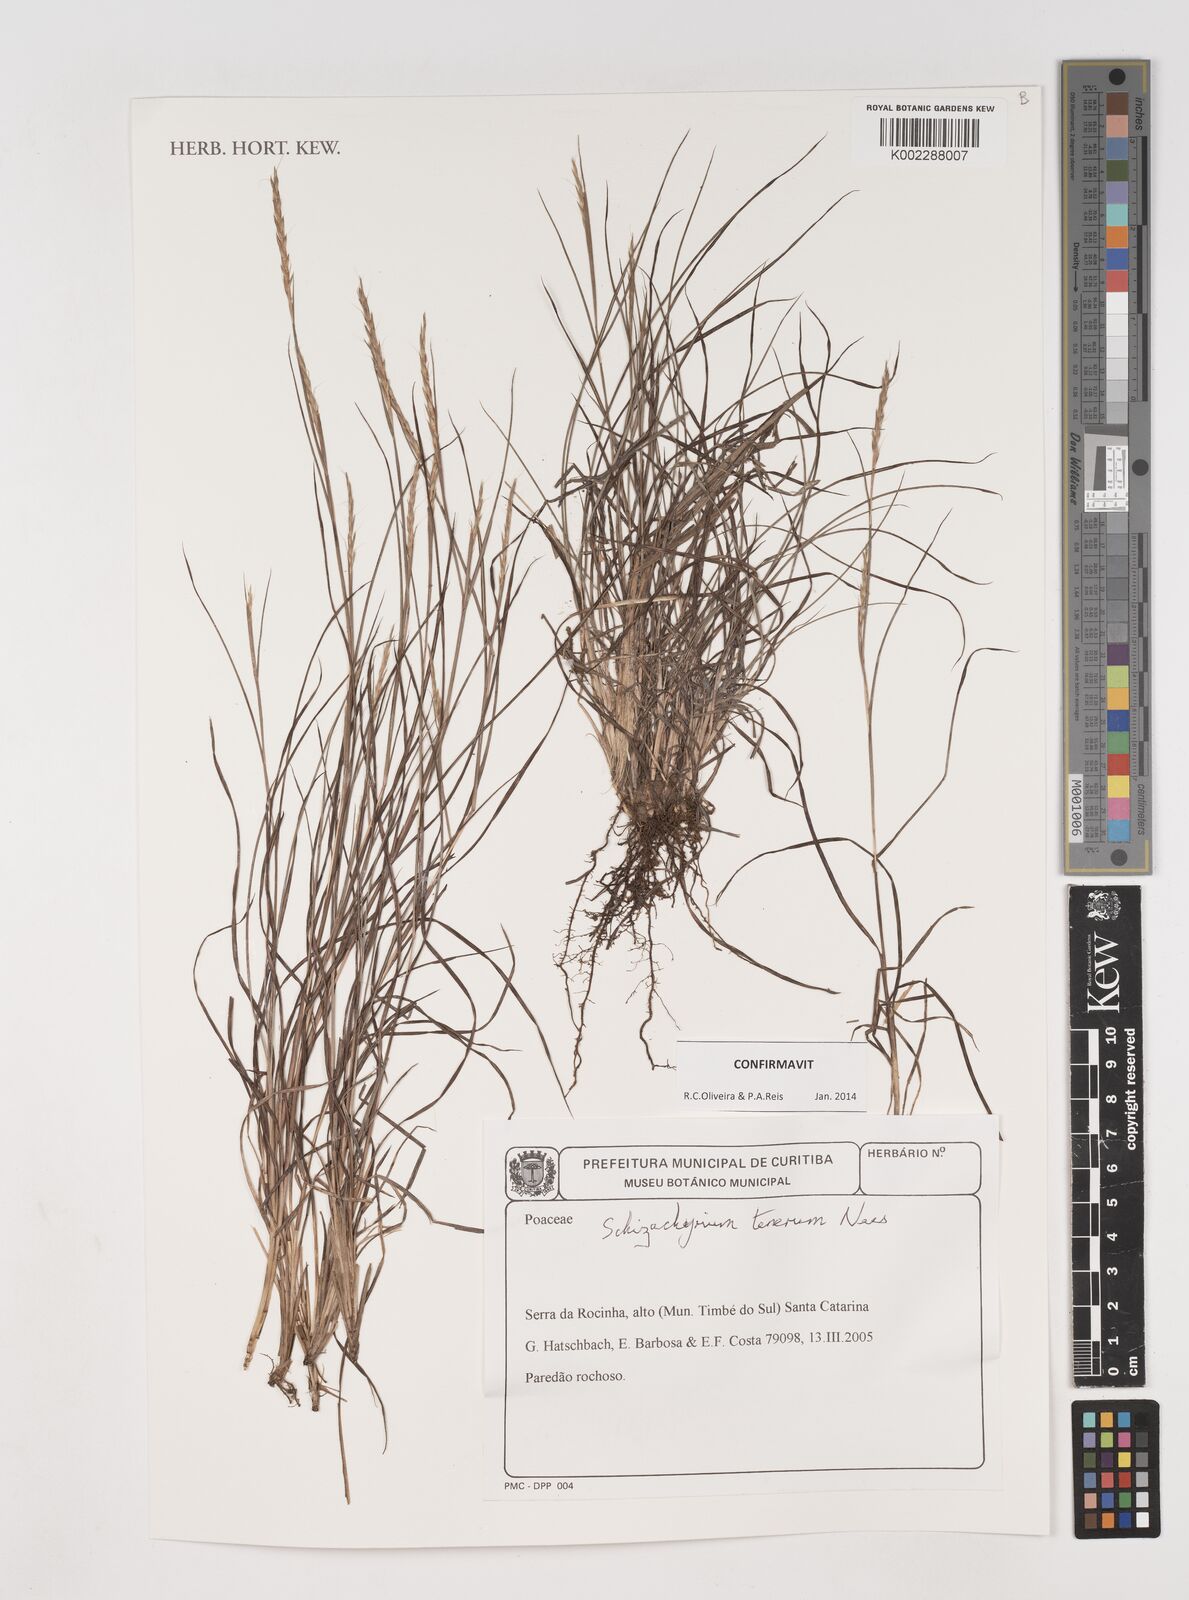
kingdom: Plantae
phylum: Tracheophyta
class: Liliopsida
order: Poales
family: Poaceae
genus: Andropogon
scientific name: Andropogon tener
